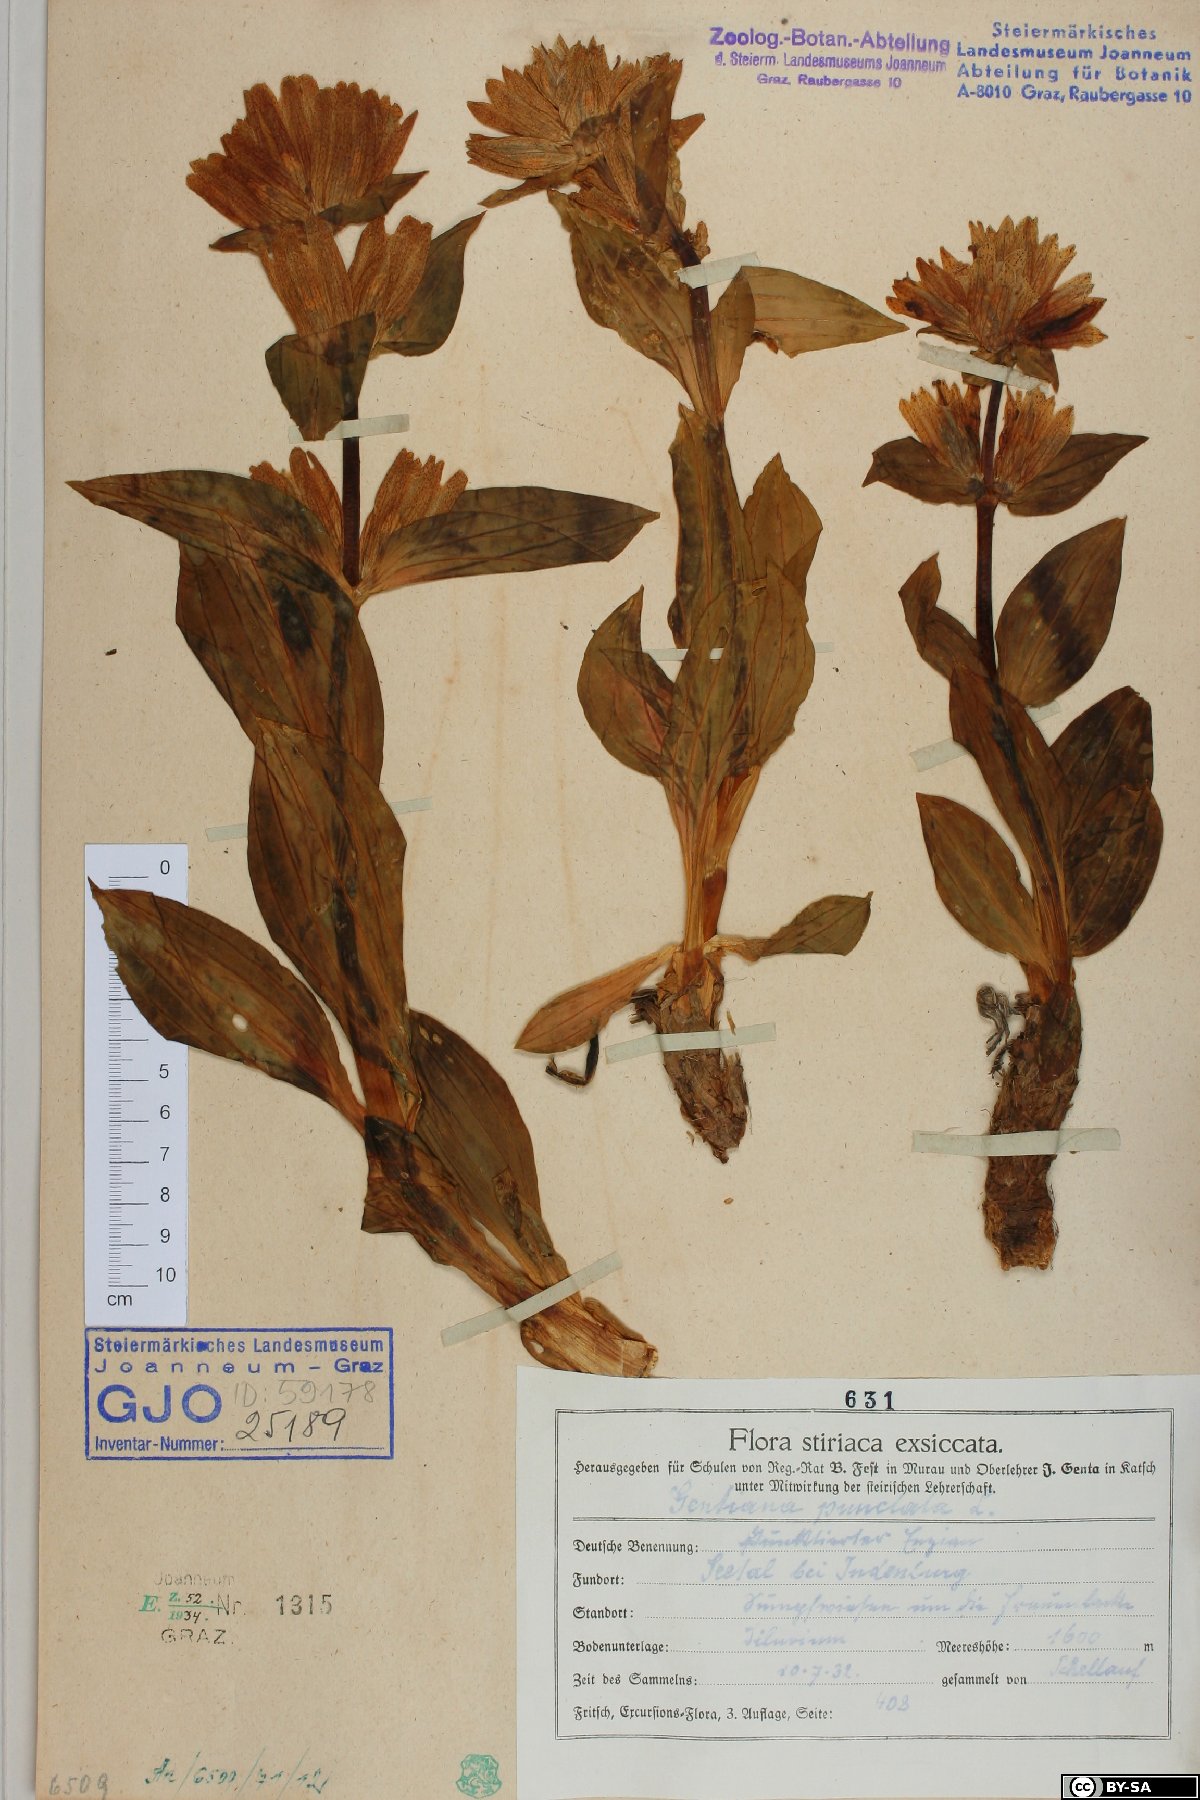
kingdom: Plantae
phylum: Tracheophyta
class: Magnoliopsida
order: Gentianales
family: Gentianaceae
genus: Gentiana
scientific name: Gentiana punctata
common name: Spotted gentian
